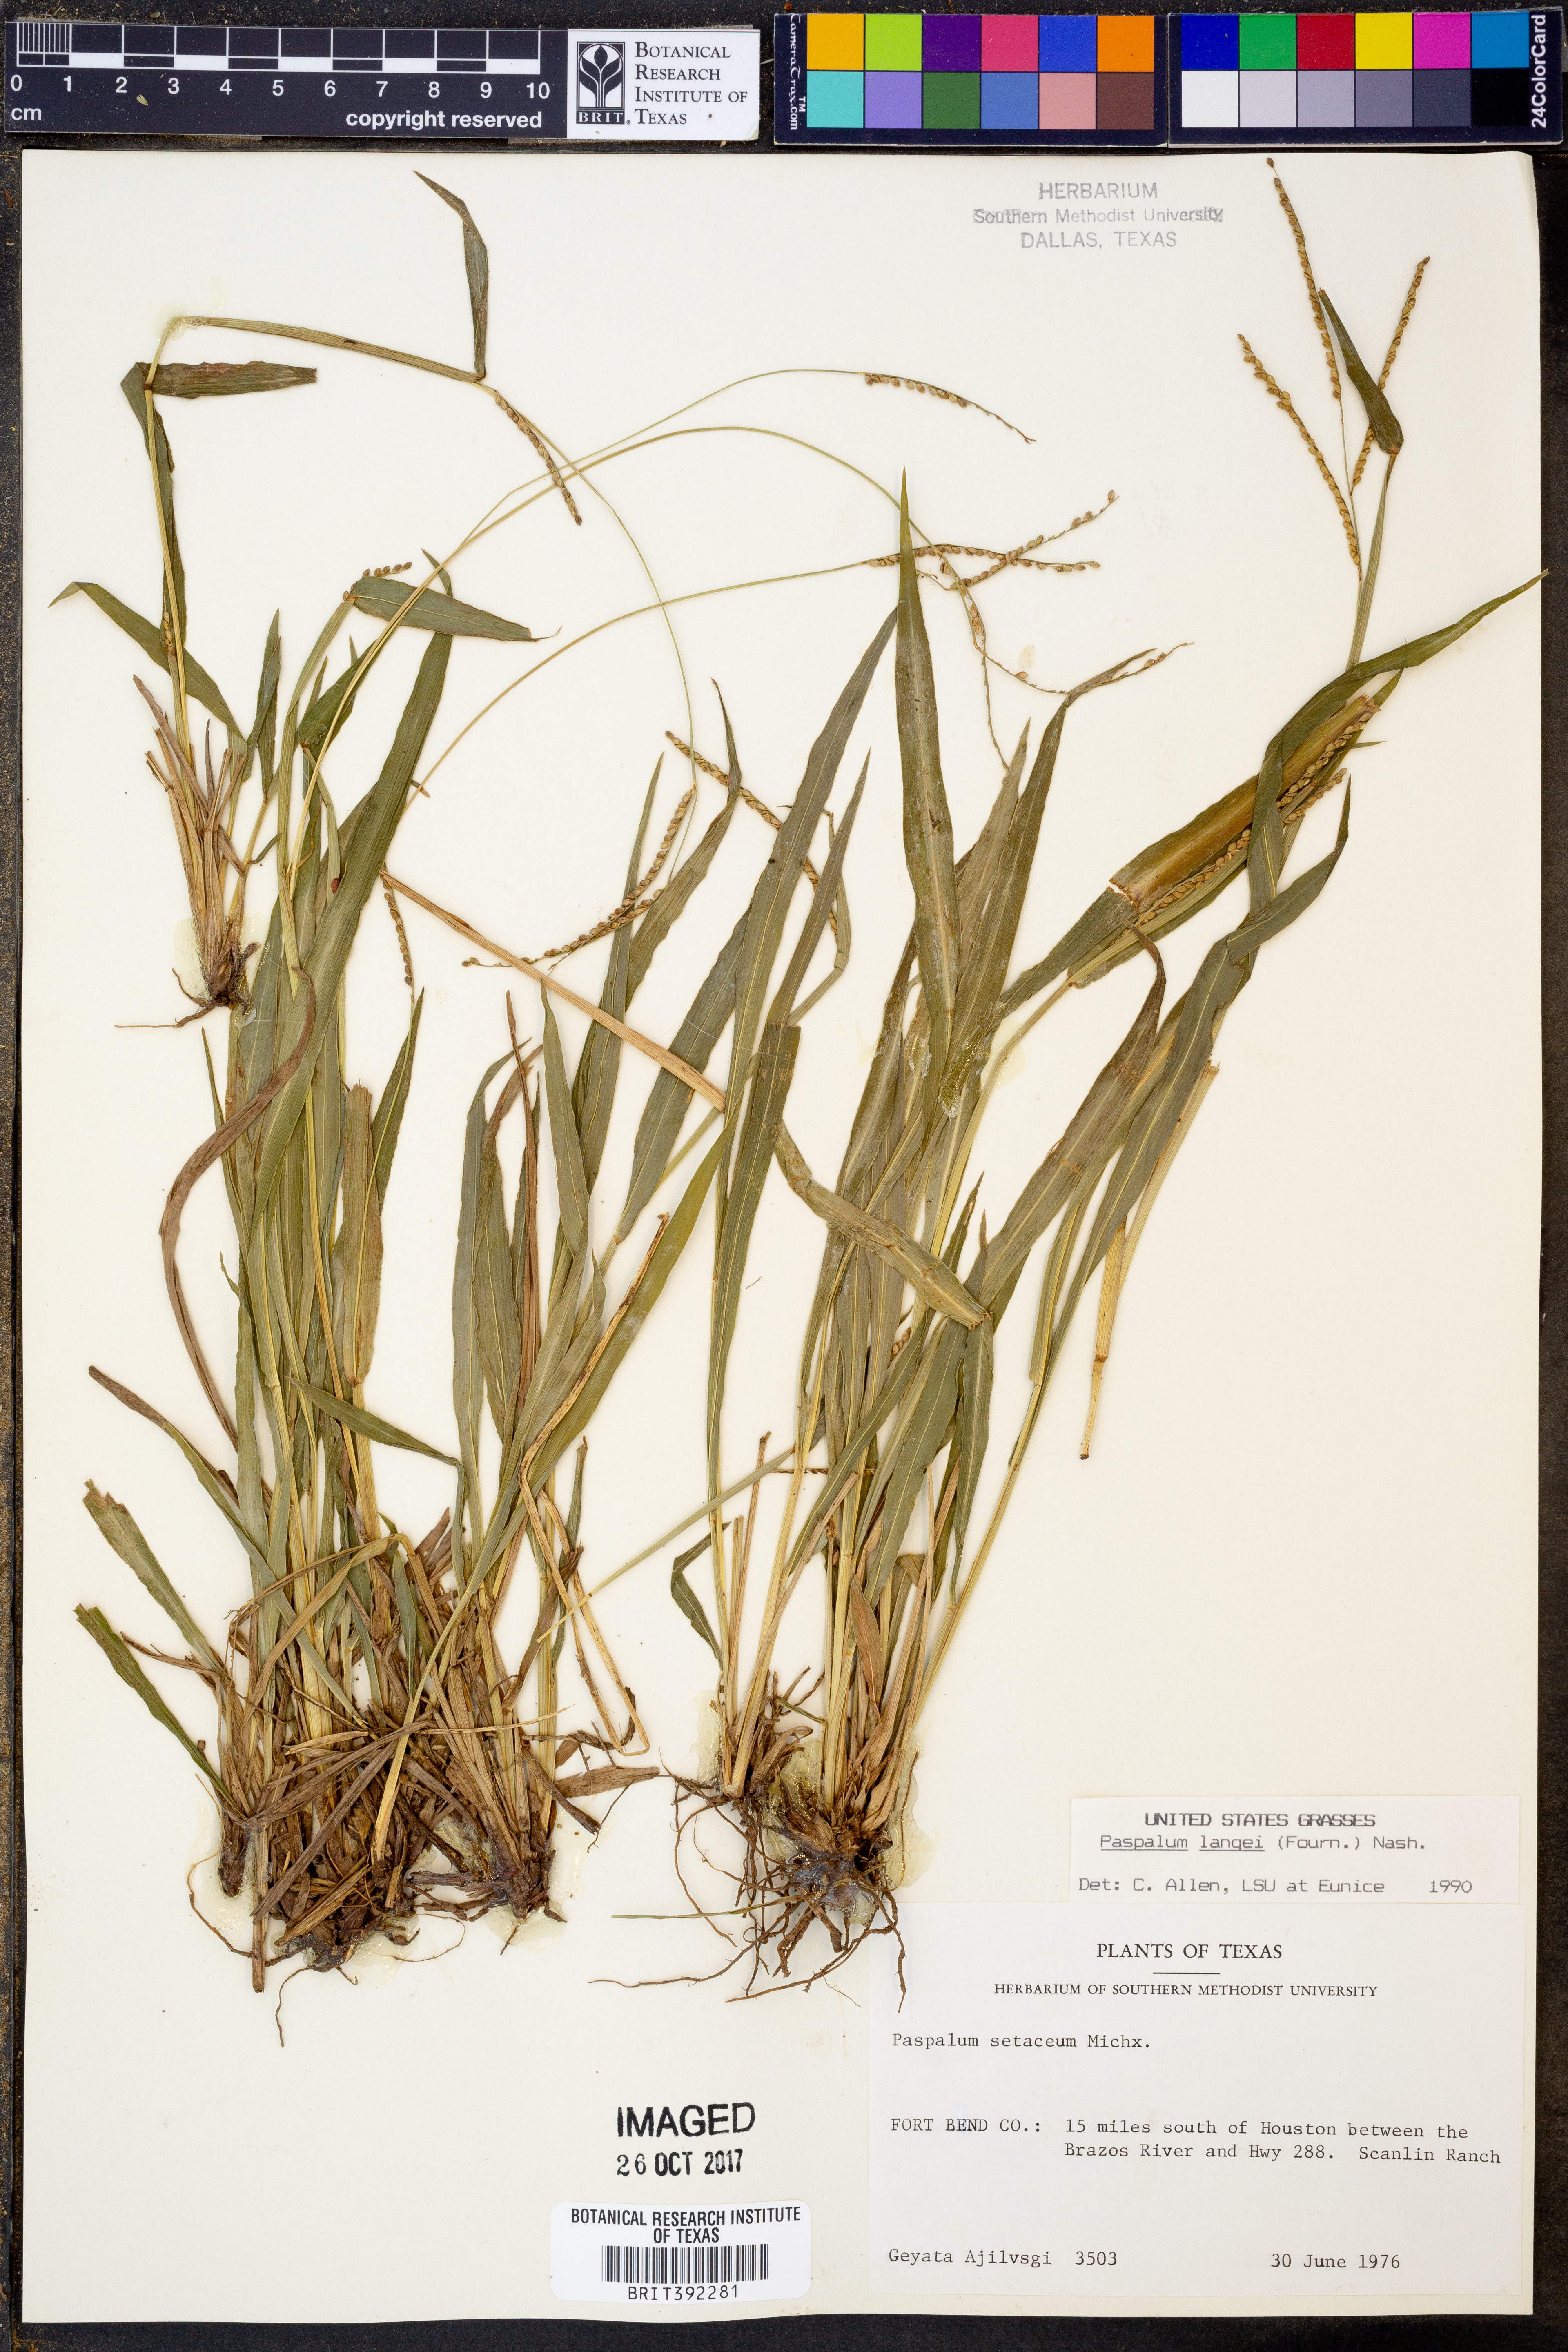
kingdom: Plantae
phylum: Tracheophyta
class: Liliopsida
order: Poales
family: Poaceae
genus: Paspalum
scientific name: Paspalum langei
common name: Rusty-seed paspalum
